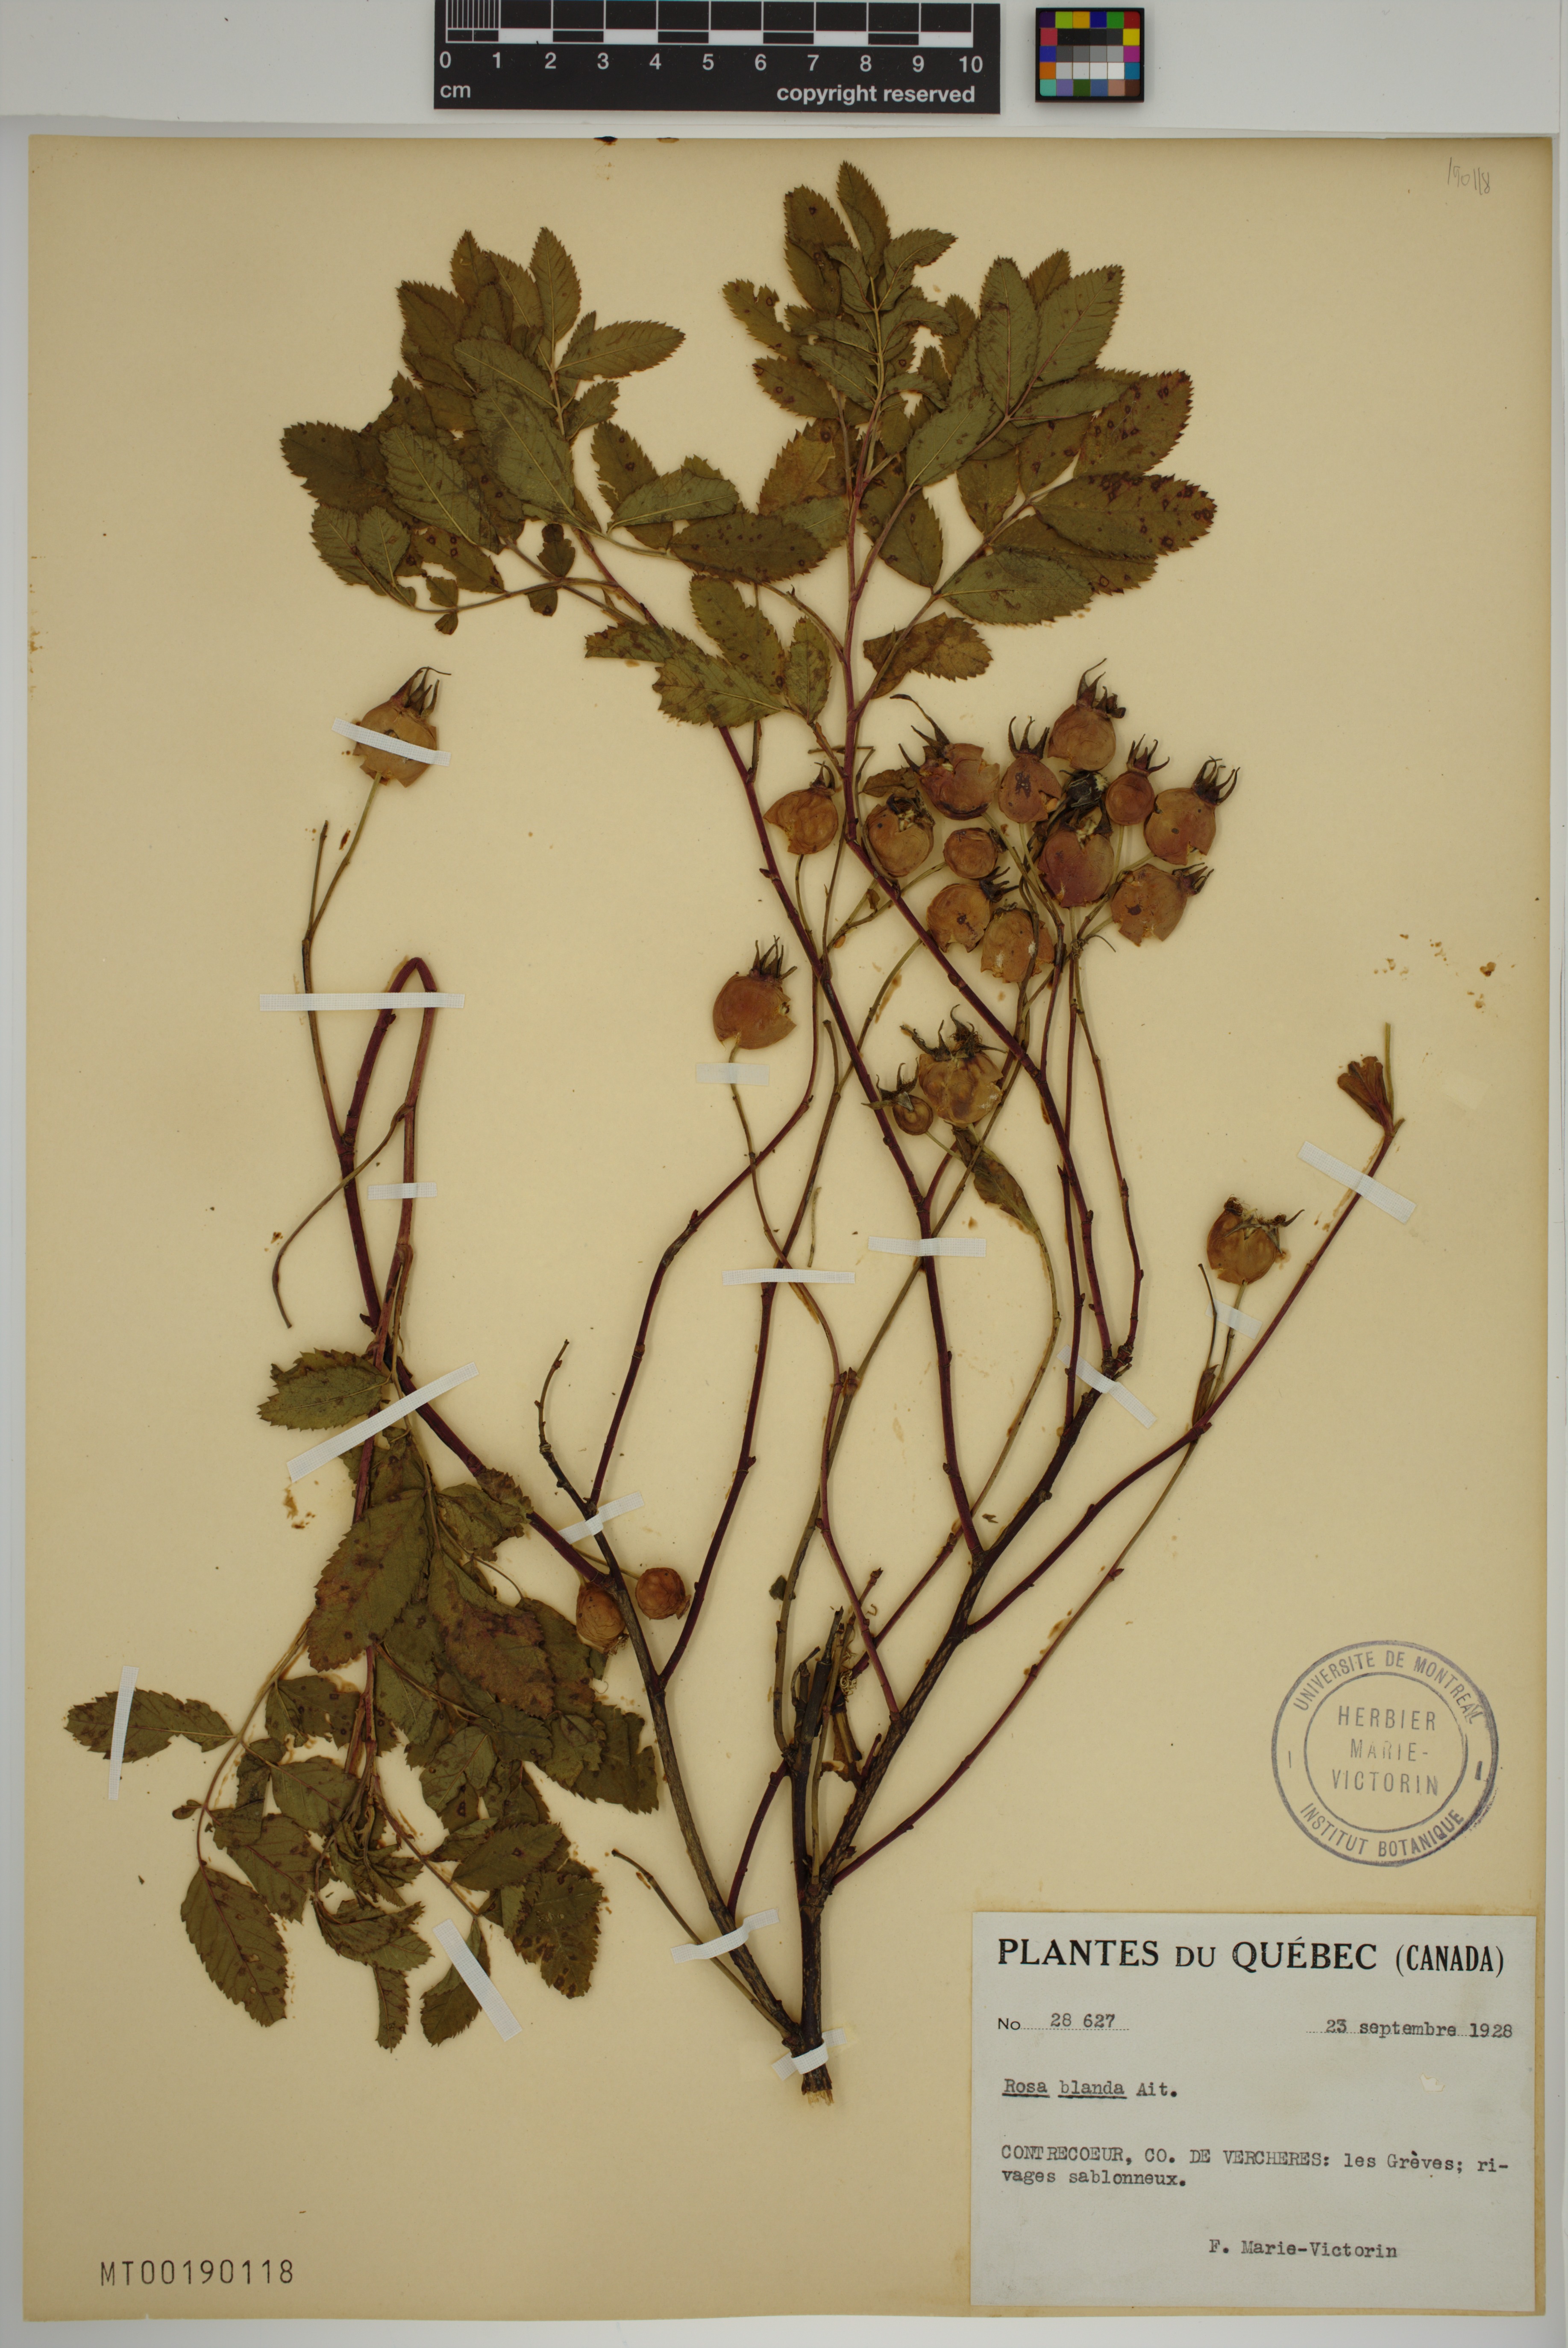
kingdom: Plantae
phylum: Tracheophyta
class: Magnoliopsida
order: Rosales
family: Rosaceae
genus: Rosa
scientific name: Rosa blanda
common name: Smooth rose
